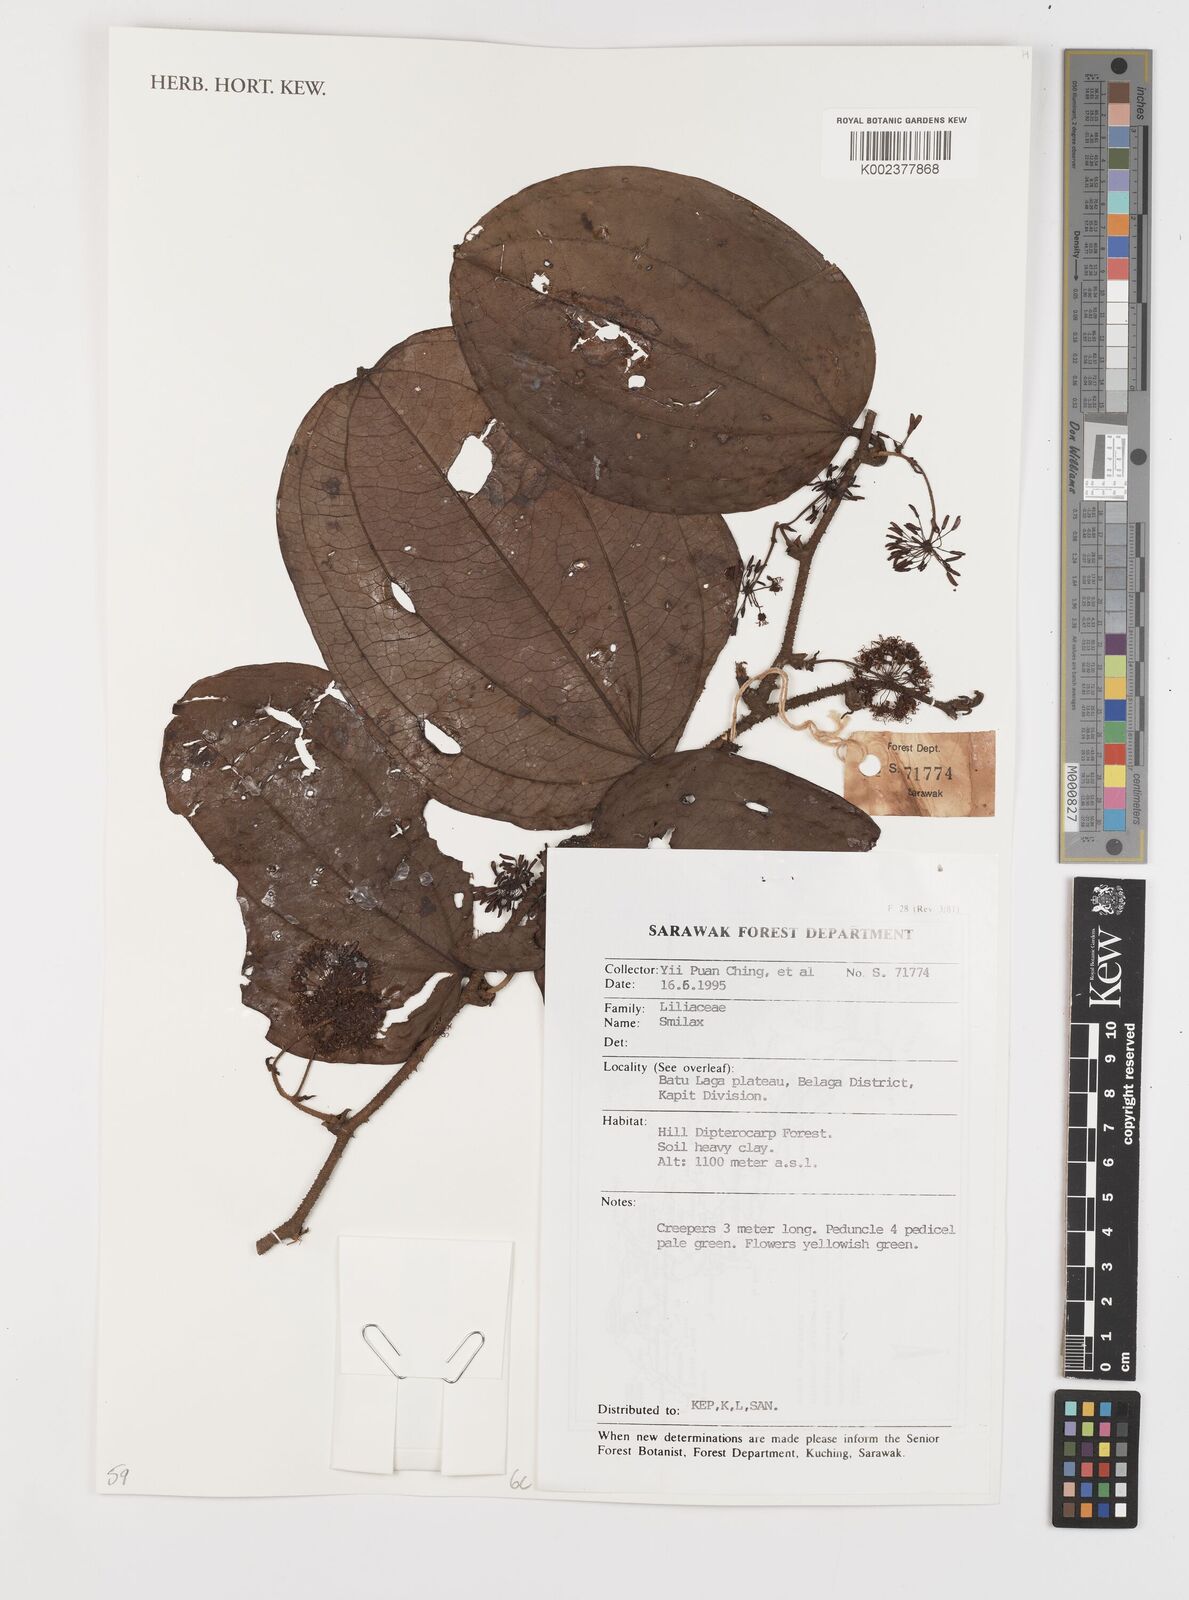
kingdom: Plantae
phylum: Tracheophyta
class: Liliopsida
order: Liliales
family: Smilacaceae
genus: Smilax
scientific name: Smilax
